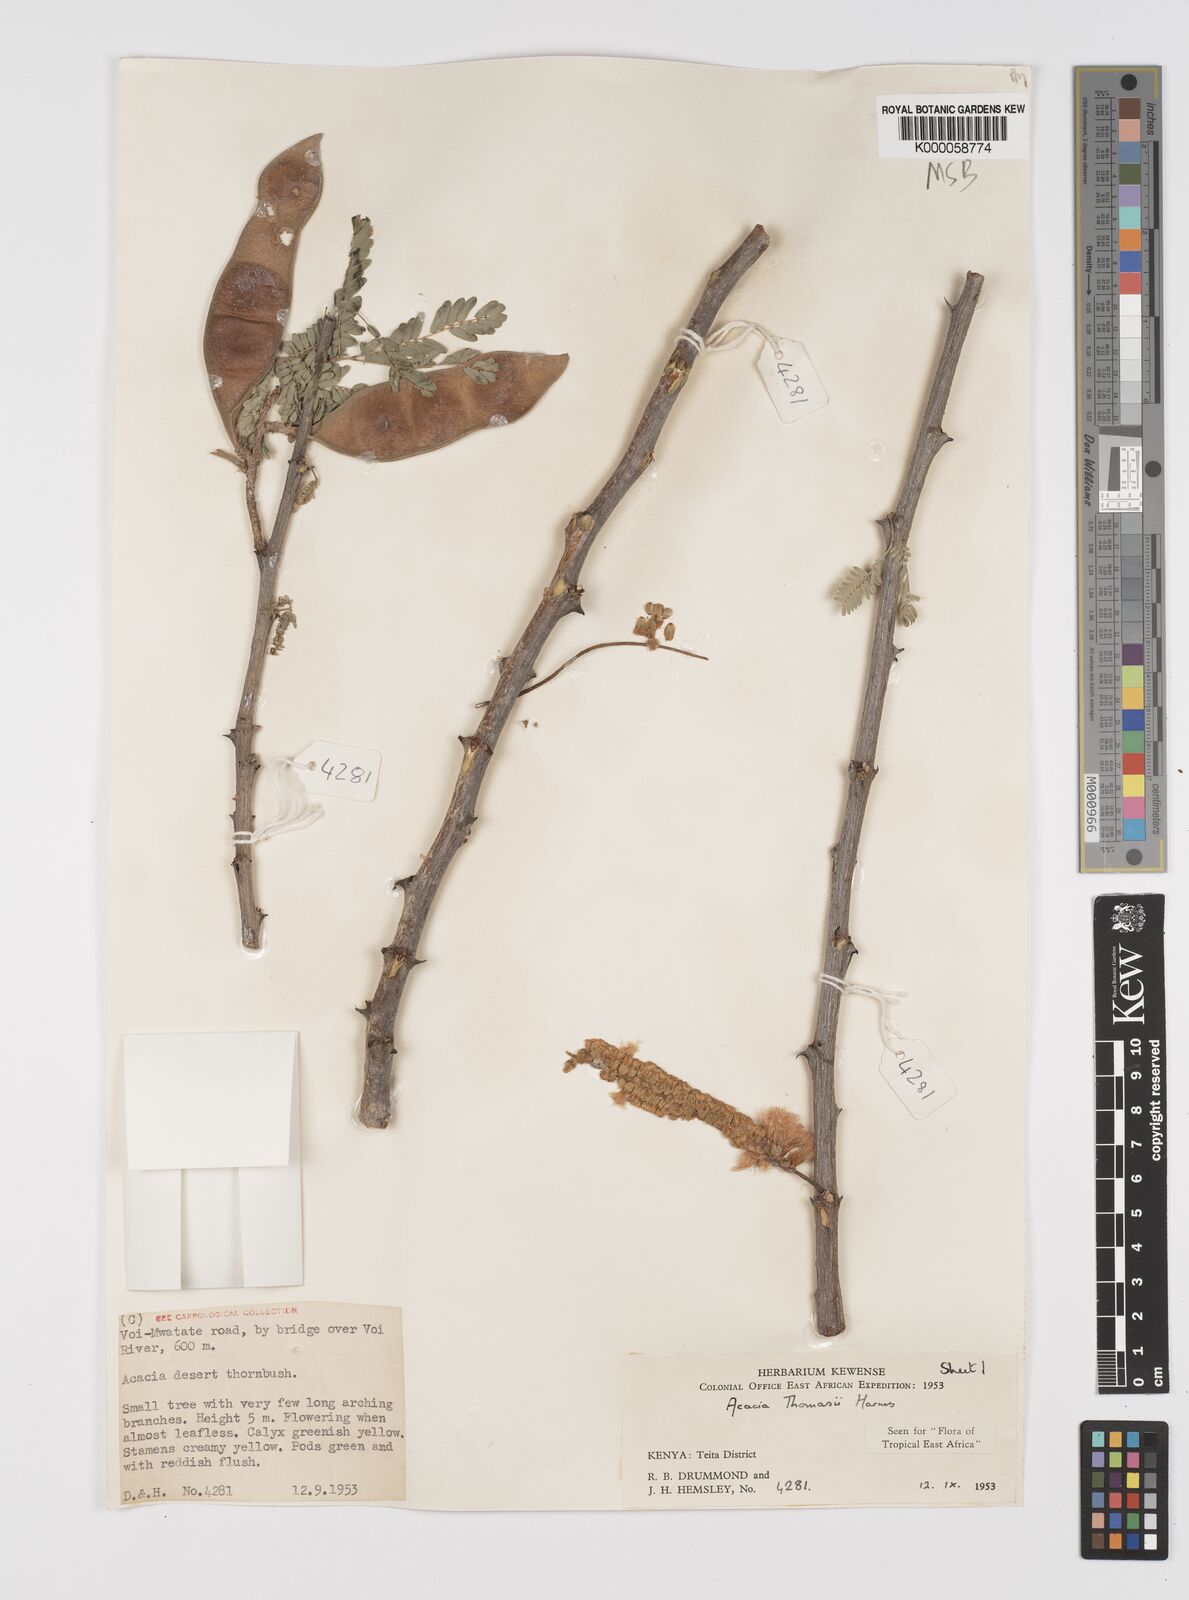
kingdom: Plantae
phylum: Tracheophyta
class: Magnoliopsida
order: Fabales
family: Fabaceae
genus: Senegalia
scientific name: Senegalia thomasii
